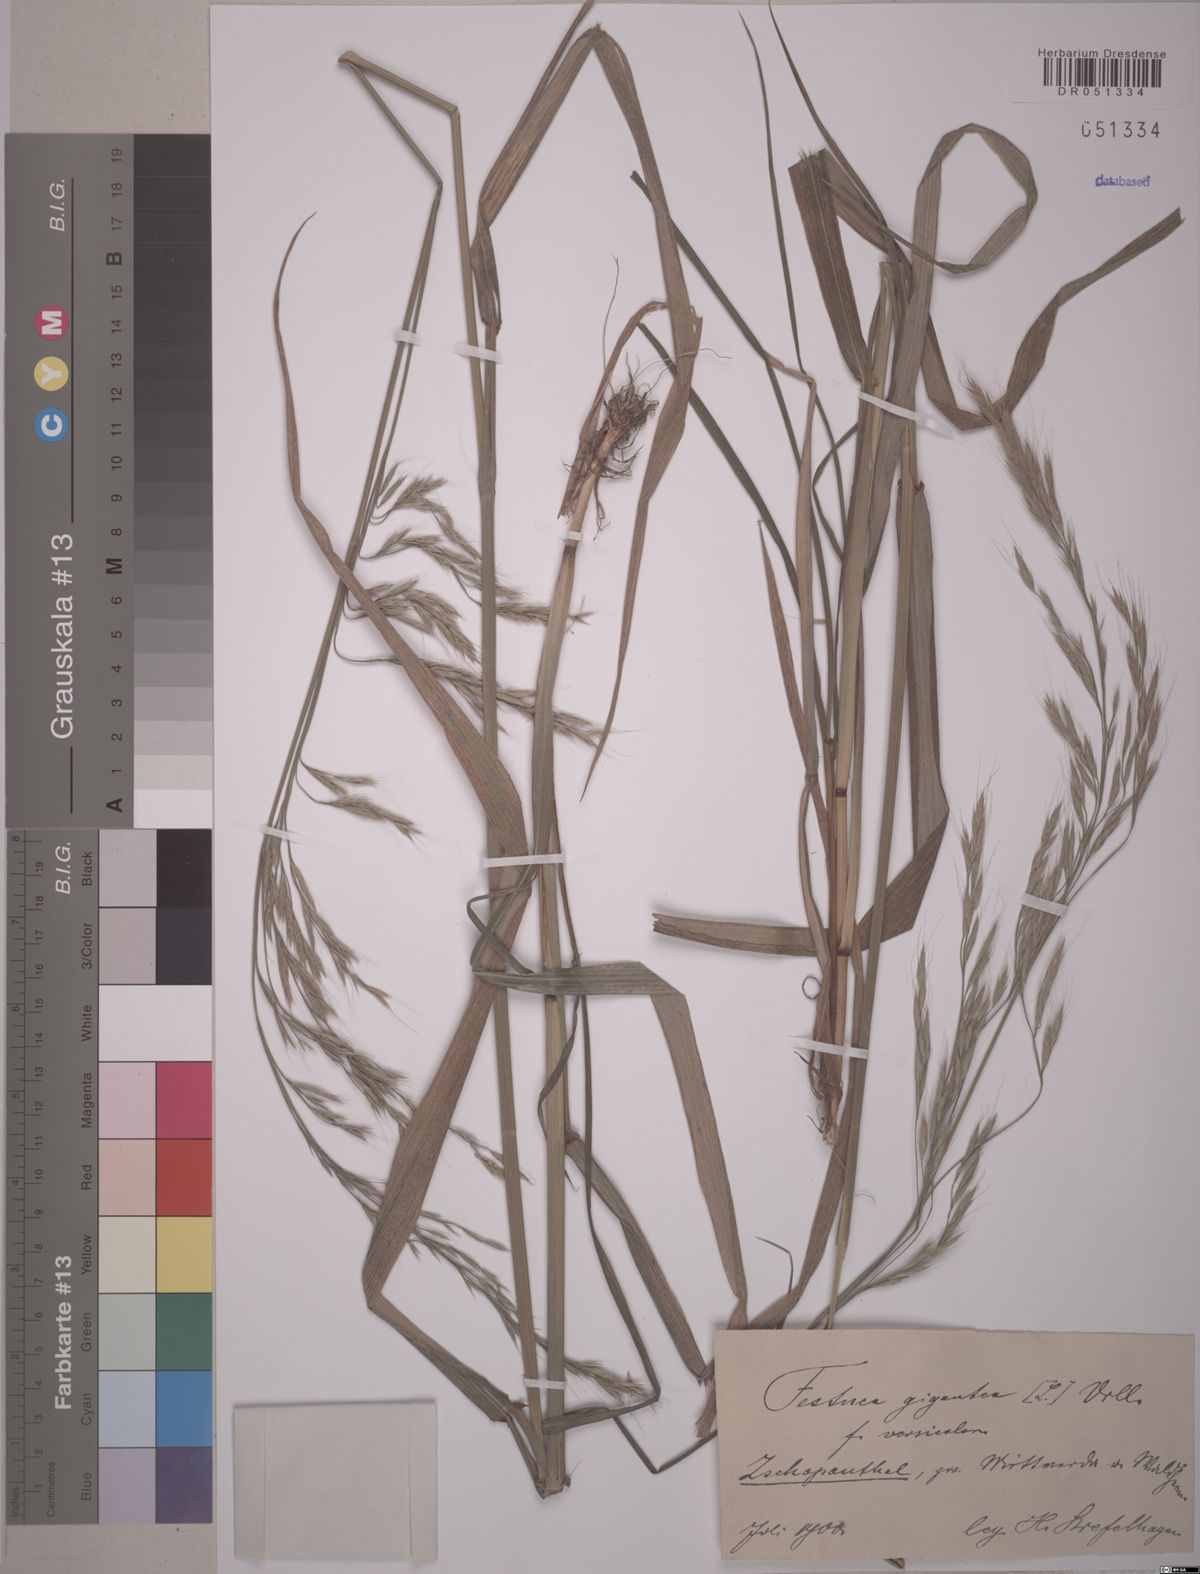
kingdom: Plantae
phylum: Tracheophyta
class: Liliopsida
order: Poales
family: Poaceae
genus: Lolium
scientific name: Lolium giganteum
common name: Giant fescue
